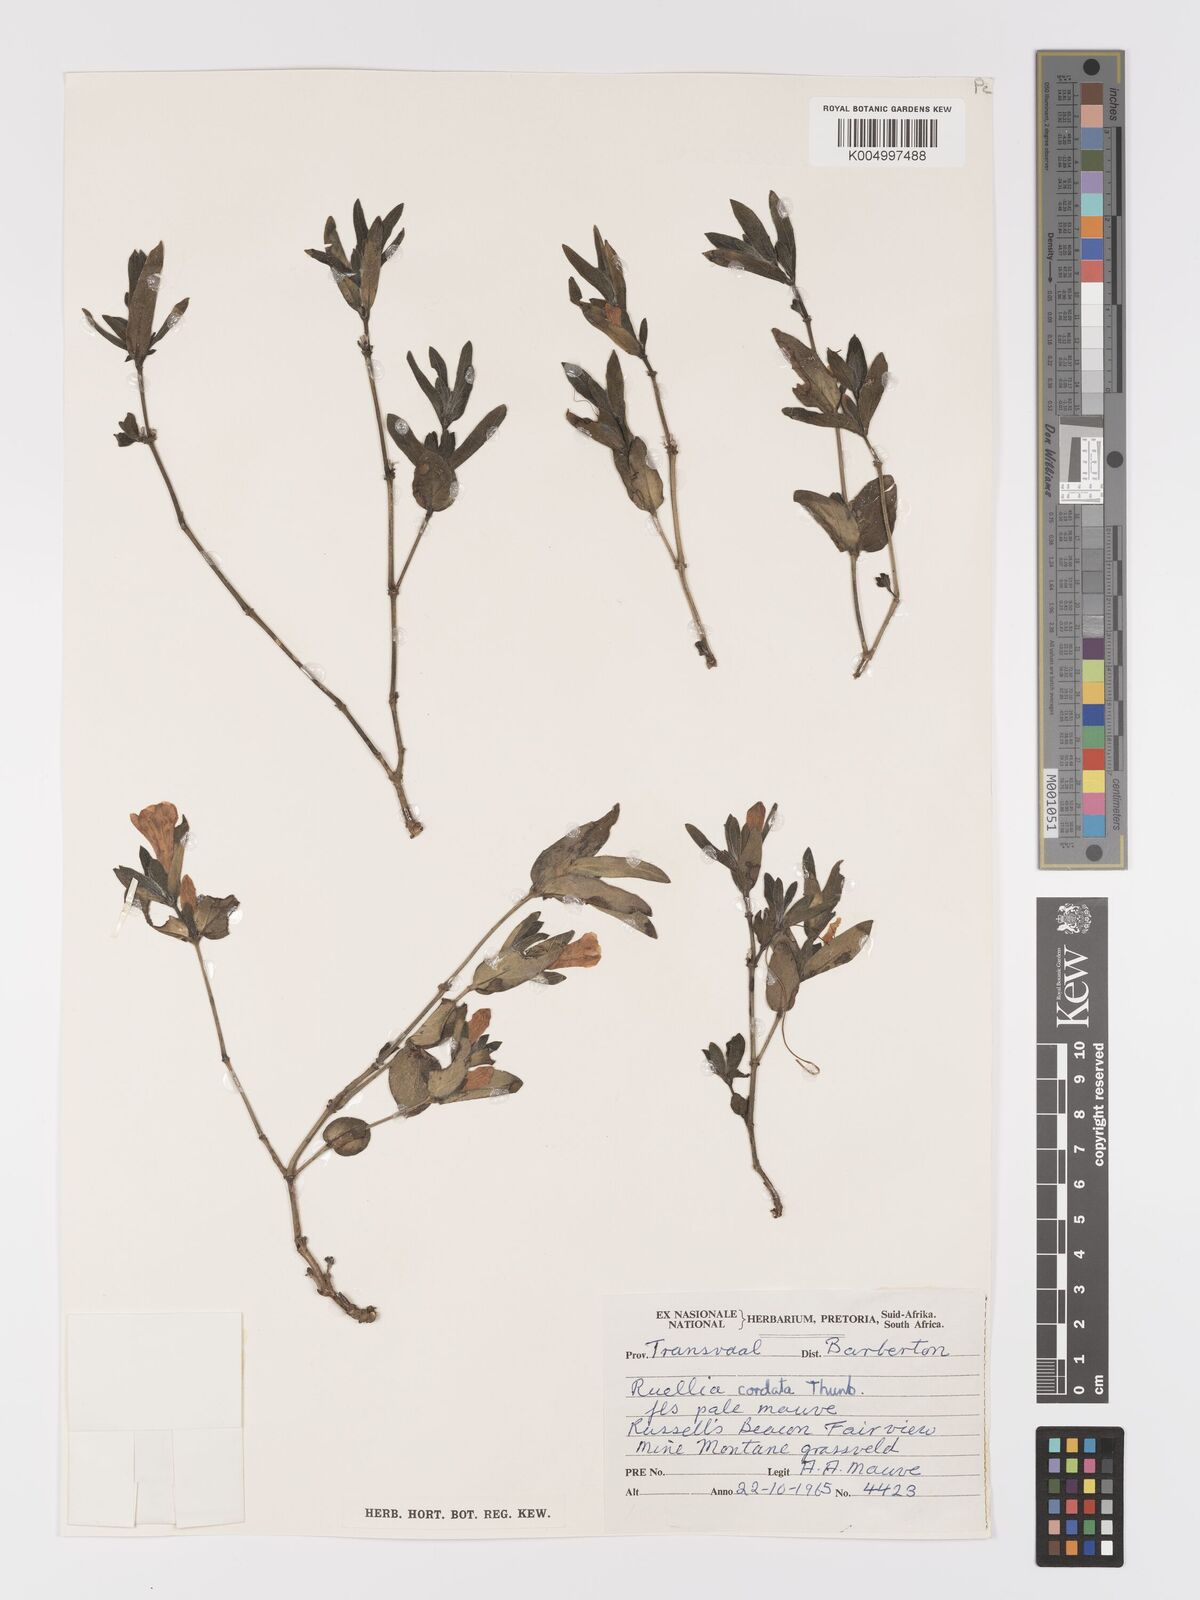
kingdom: Plantae
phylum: Tracheophyta
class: Magnoliopsida
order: Lamiales
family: Acanthaceae
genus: Ruellia
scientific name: Ruellia cordata
